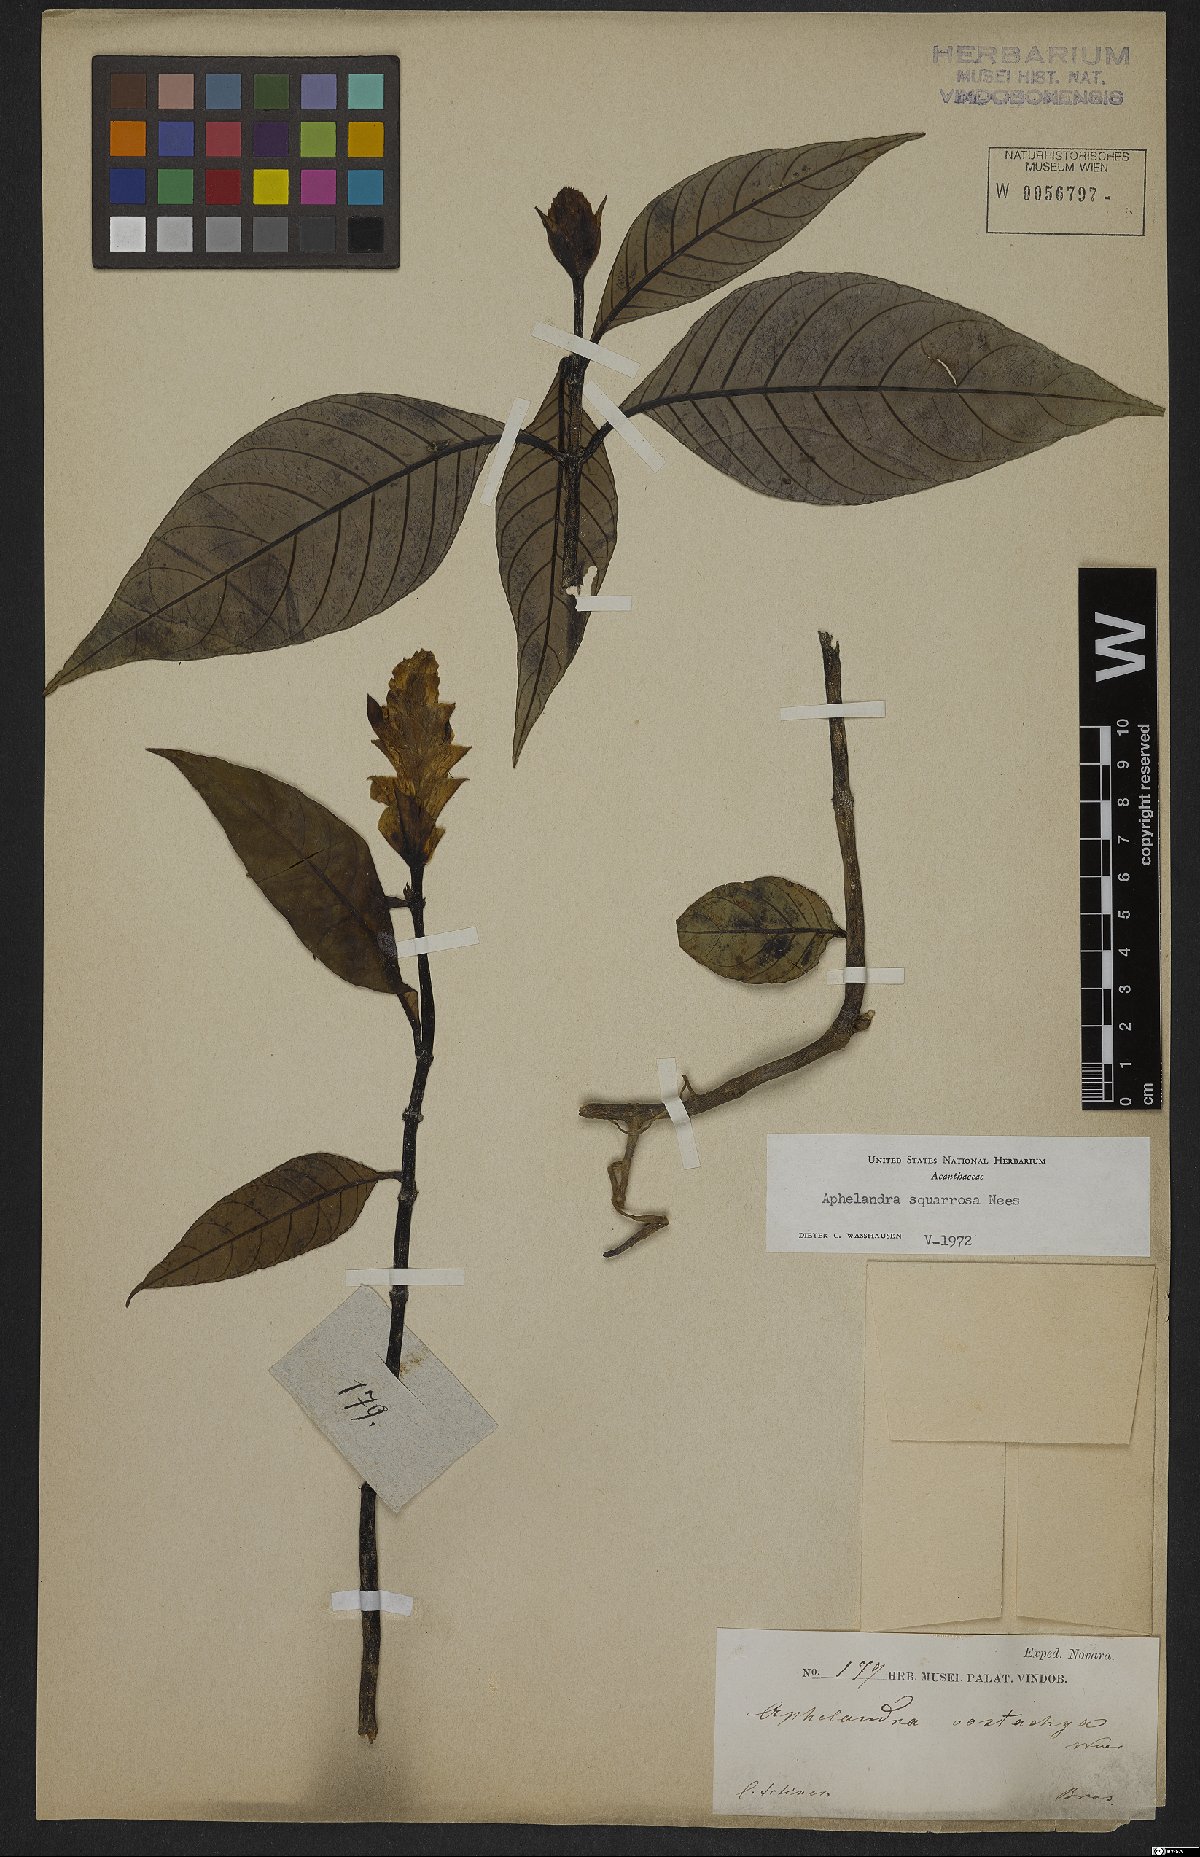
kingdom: Plantae
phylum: Tracheophyta
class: Magnoliopsida
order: Lamiales
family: Acanthaceae
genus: Aphelandra
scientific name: Aphelandra squarrosa
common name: Saffron spike
